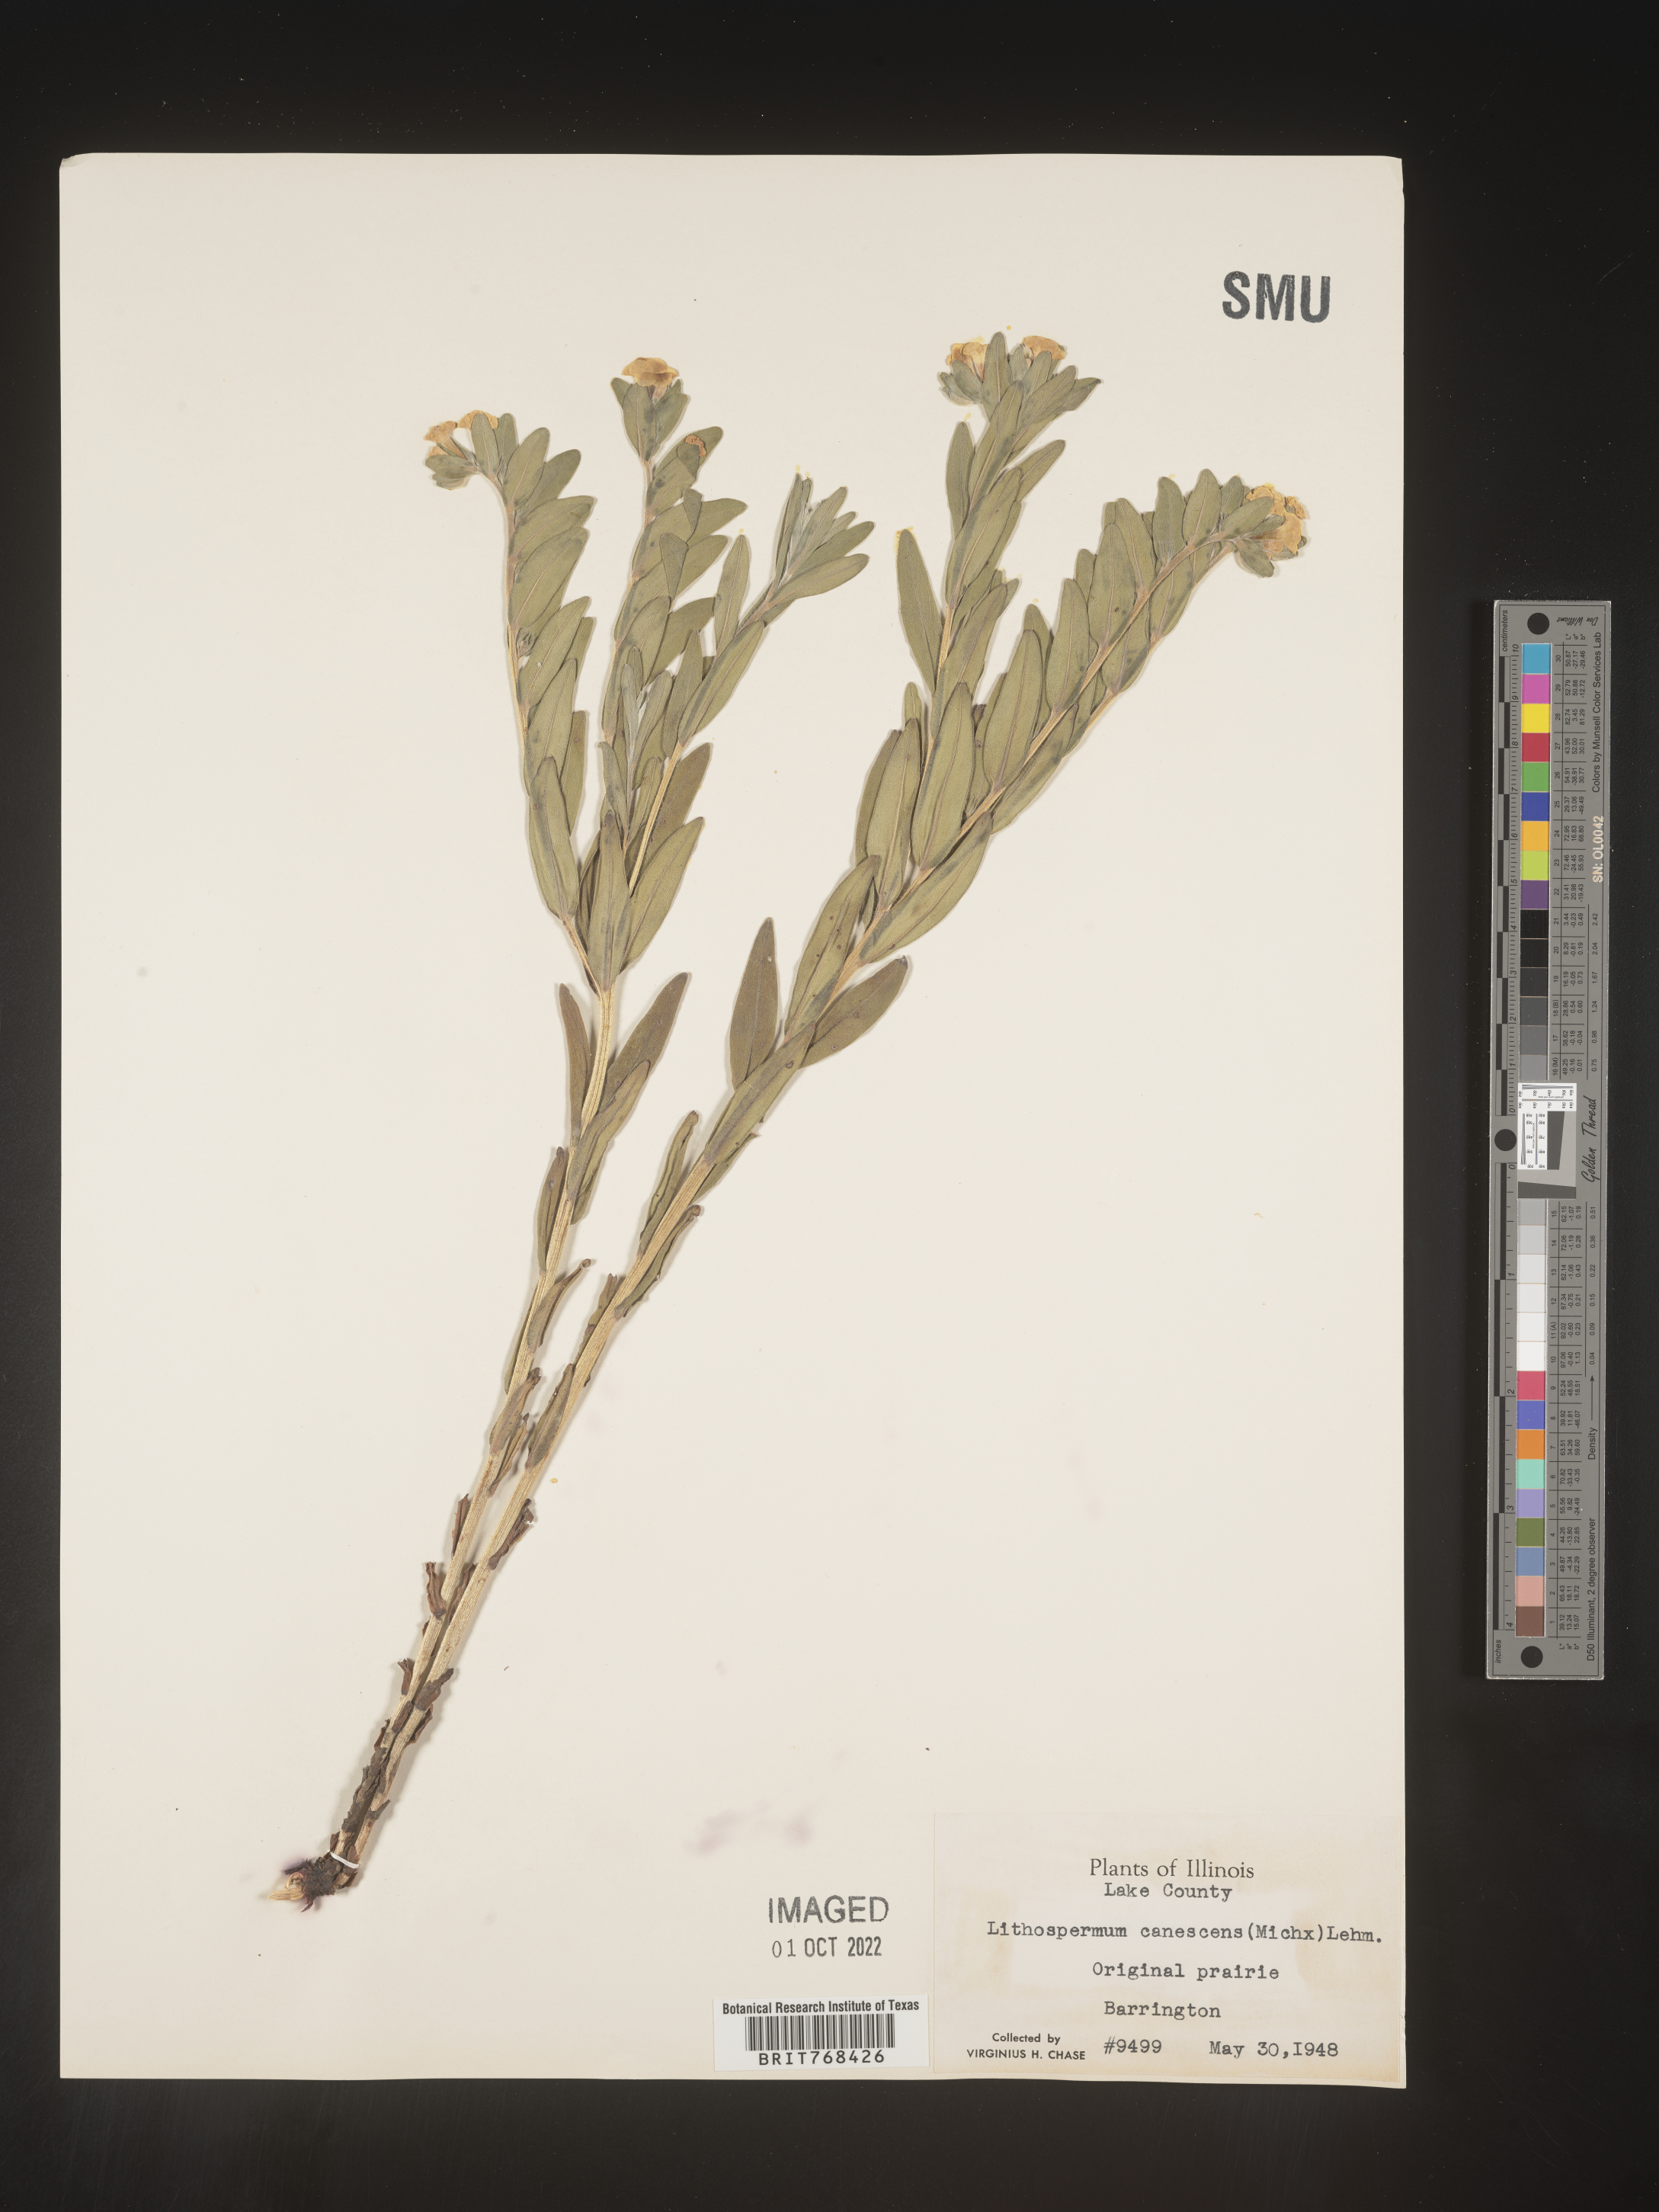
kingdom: Plantae
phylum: Tracheophyta
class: Magnoliopsida
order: Boraginales
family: Boraginaceae
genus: Lithospermum
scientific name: Lithospermum canescens
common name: Hoary puccoon
